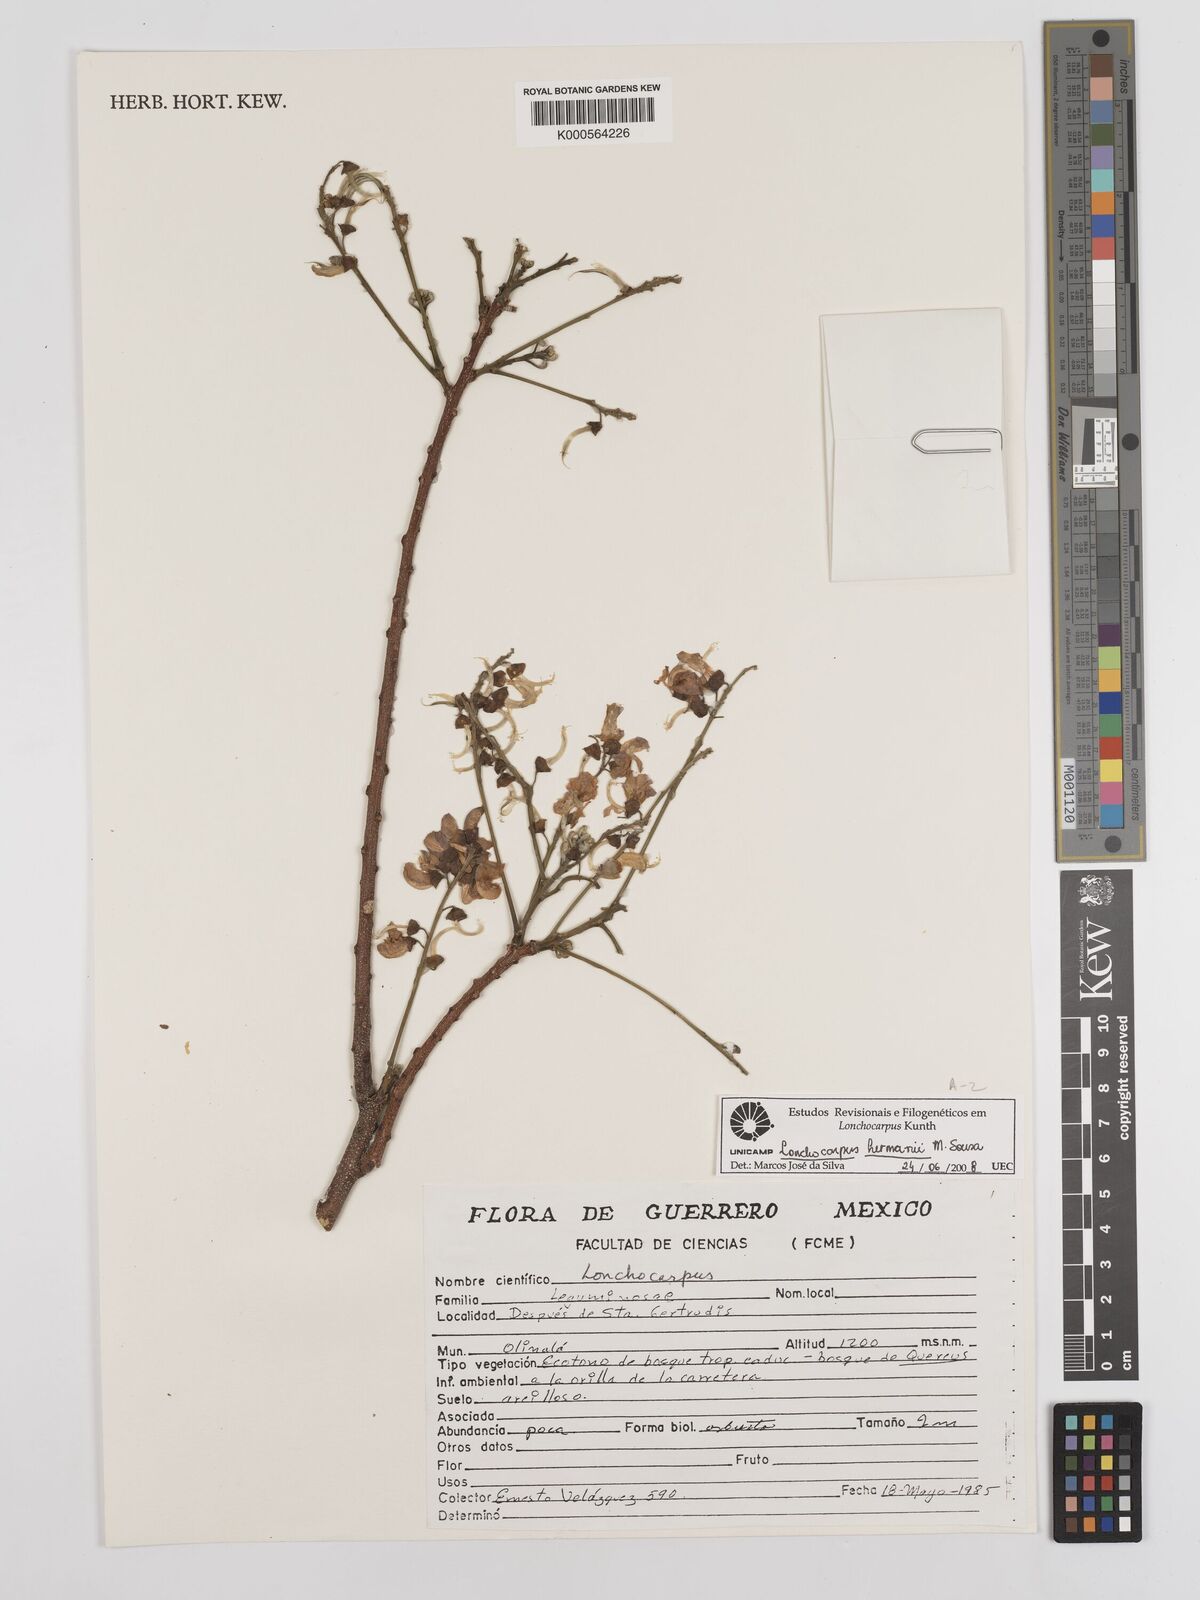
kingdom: Plantae
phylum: Tracheophyta
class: Magnoliopsida
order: Fabales
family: Fabaceae
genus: Lonchocarpus
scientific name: Lonchocarpus hermannii
